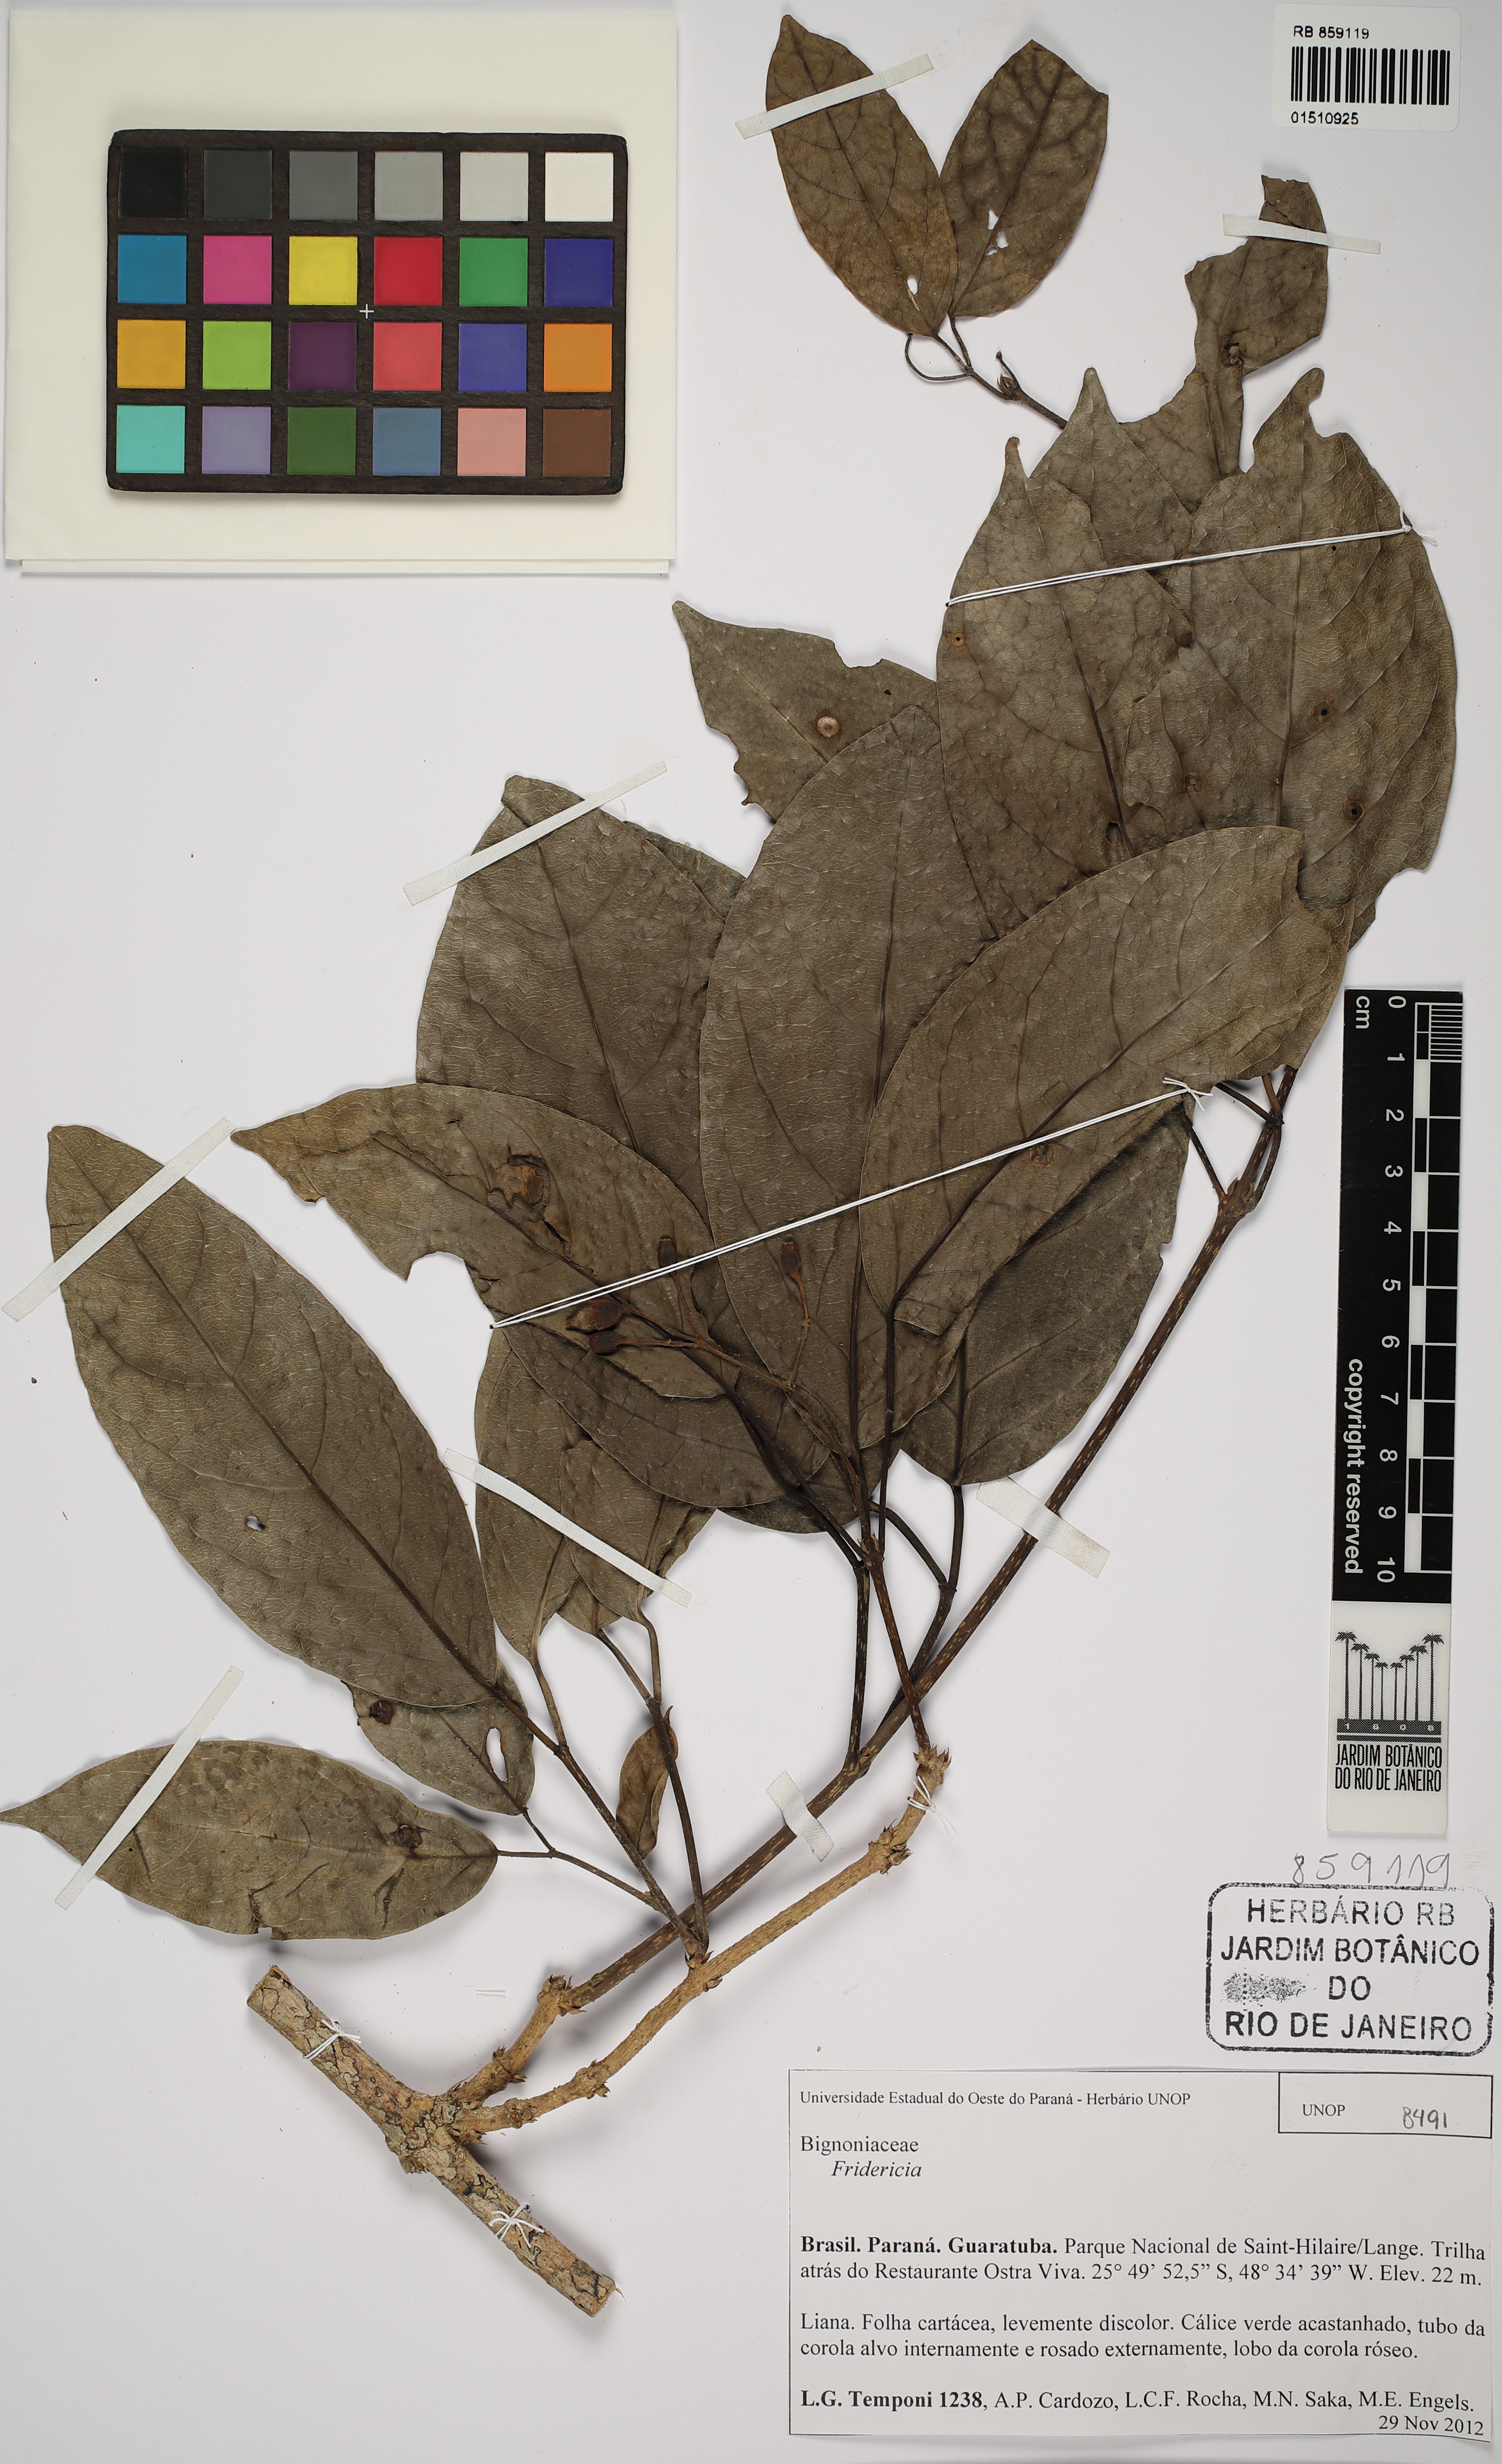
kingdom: Plantae
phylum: Tracheophyta
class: Magnoliopsida
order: Lamiales
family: Bignoniaceae
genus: Fridericia
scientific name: Fridericia
